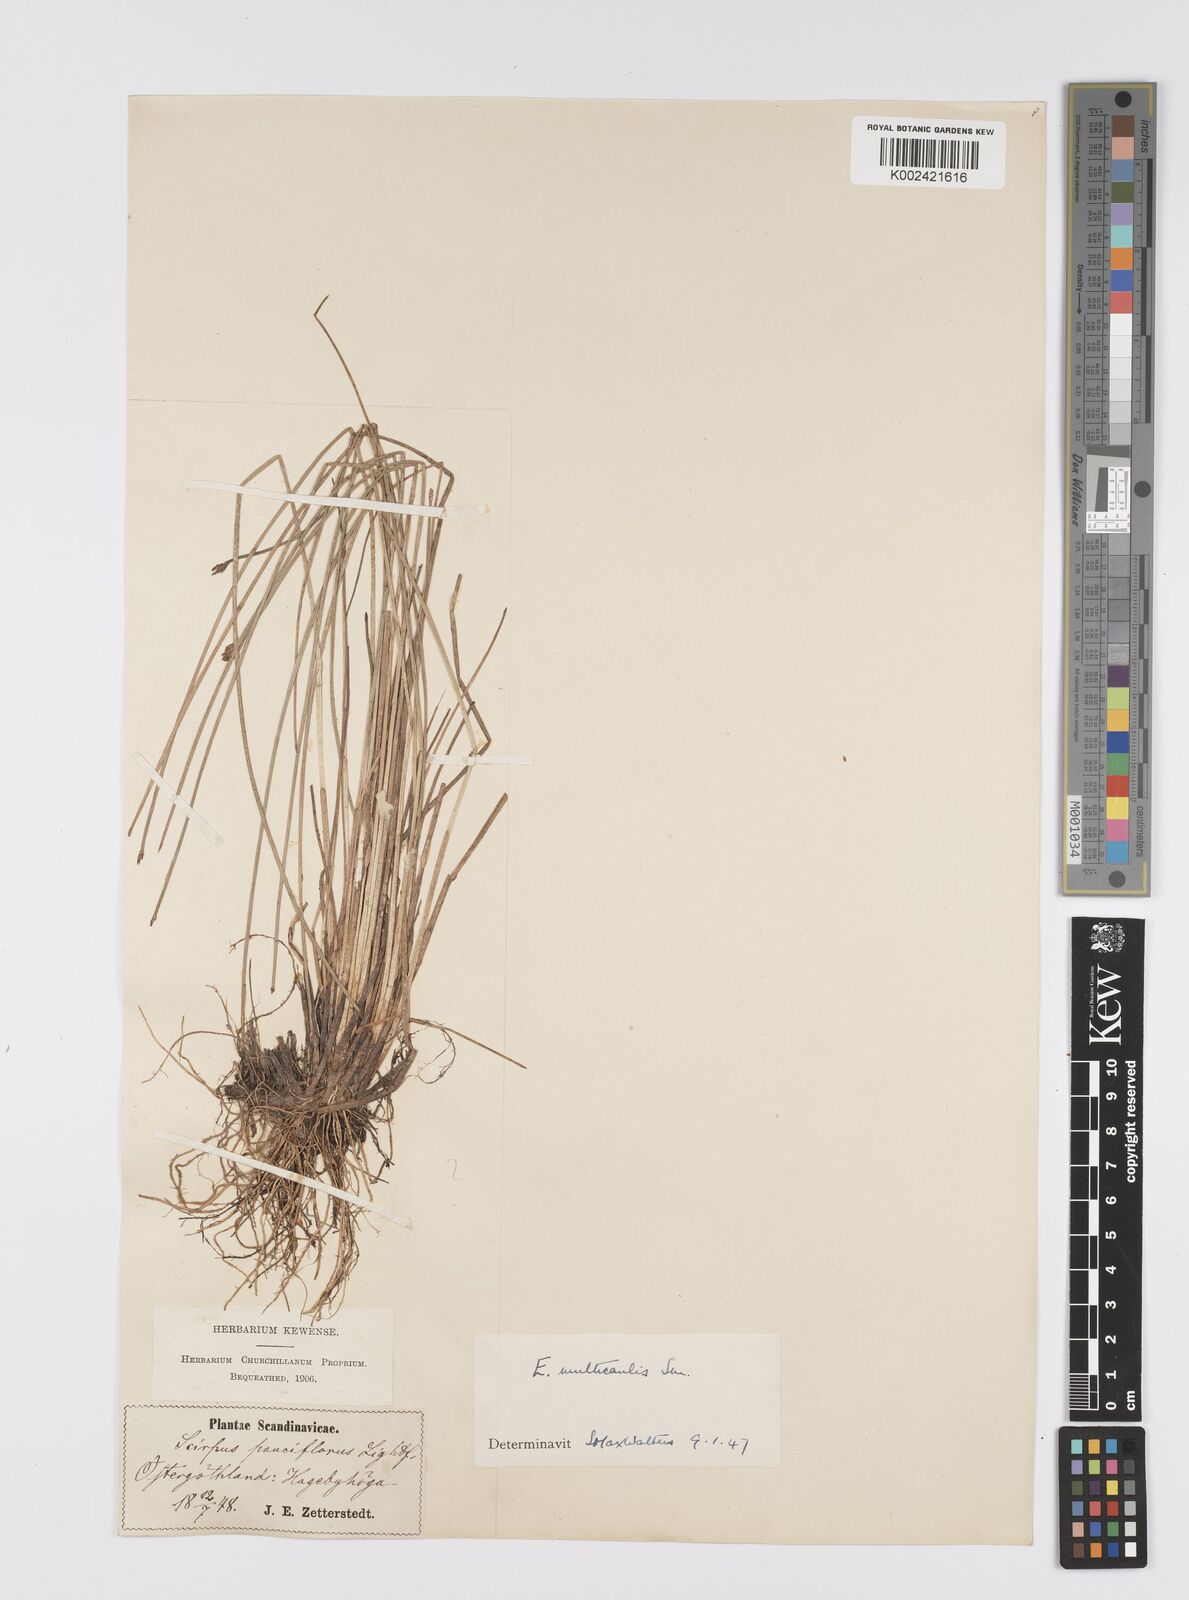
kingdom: Plantae
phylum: Tracheophyta
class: Liliopsida
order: Poales
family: Cyperaceae
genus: Eleocharis
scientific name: Eleocharis multicaulis
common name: Many-stalked spike-rush
